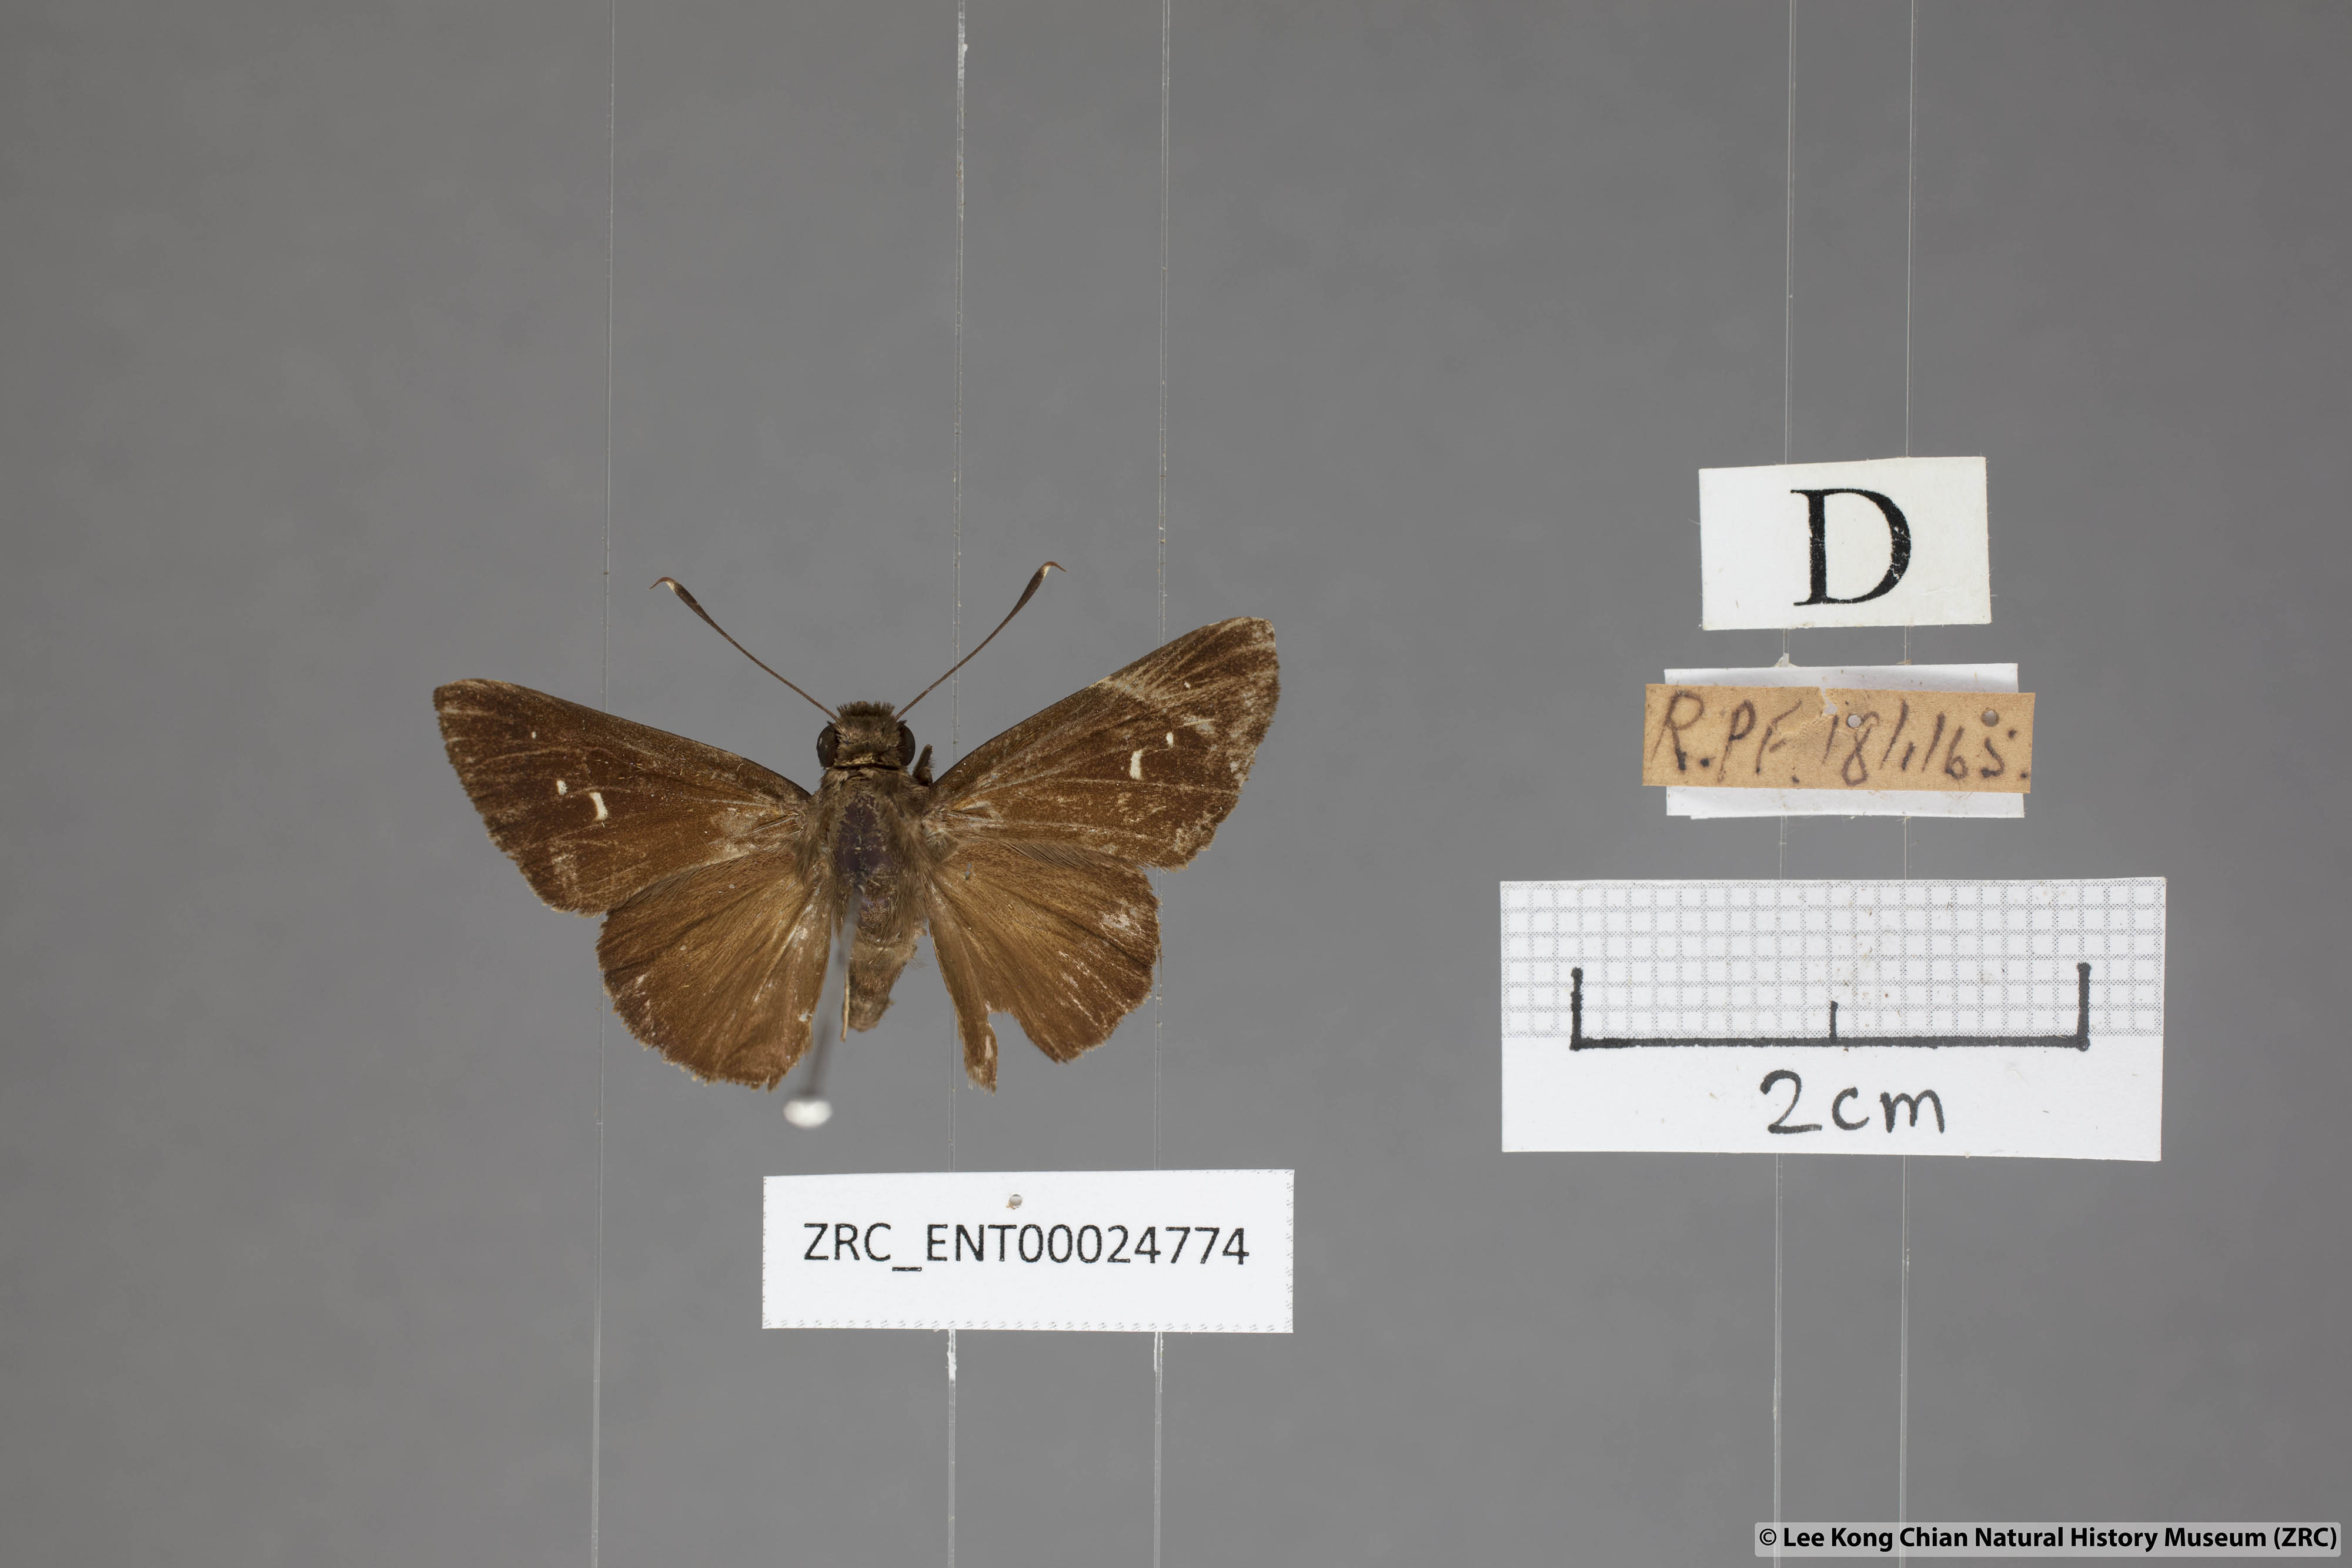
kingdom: Animalia
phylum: Arthropoda
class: Insecta
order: Lepidoptera
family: Hesperiidae
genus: Hyarotis
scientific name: Hyarotis microstictum
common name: Small brush flitter
